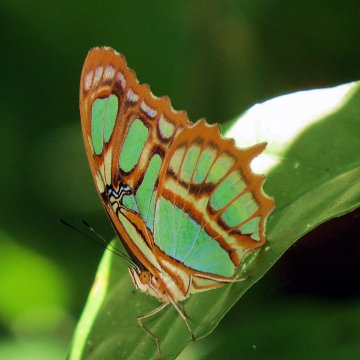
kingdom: Animalia
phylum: Arthropoda
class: Insecta
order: Lepidoptera
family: Nymphalidae
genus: Siproeta
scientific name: Siproeta stelenes
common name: Malachite
